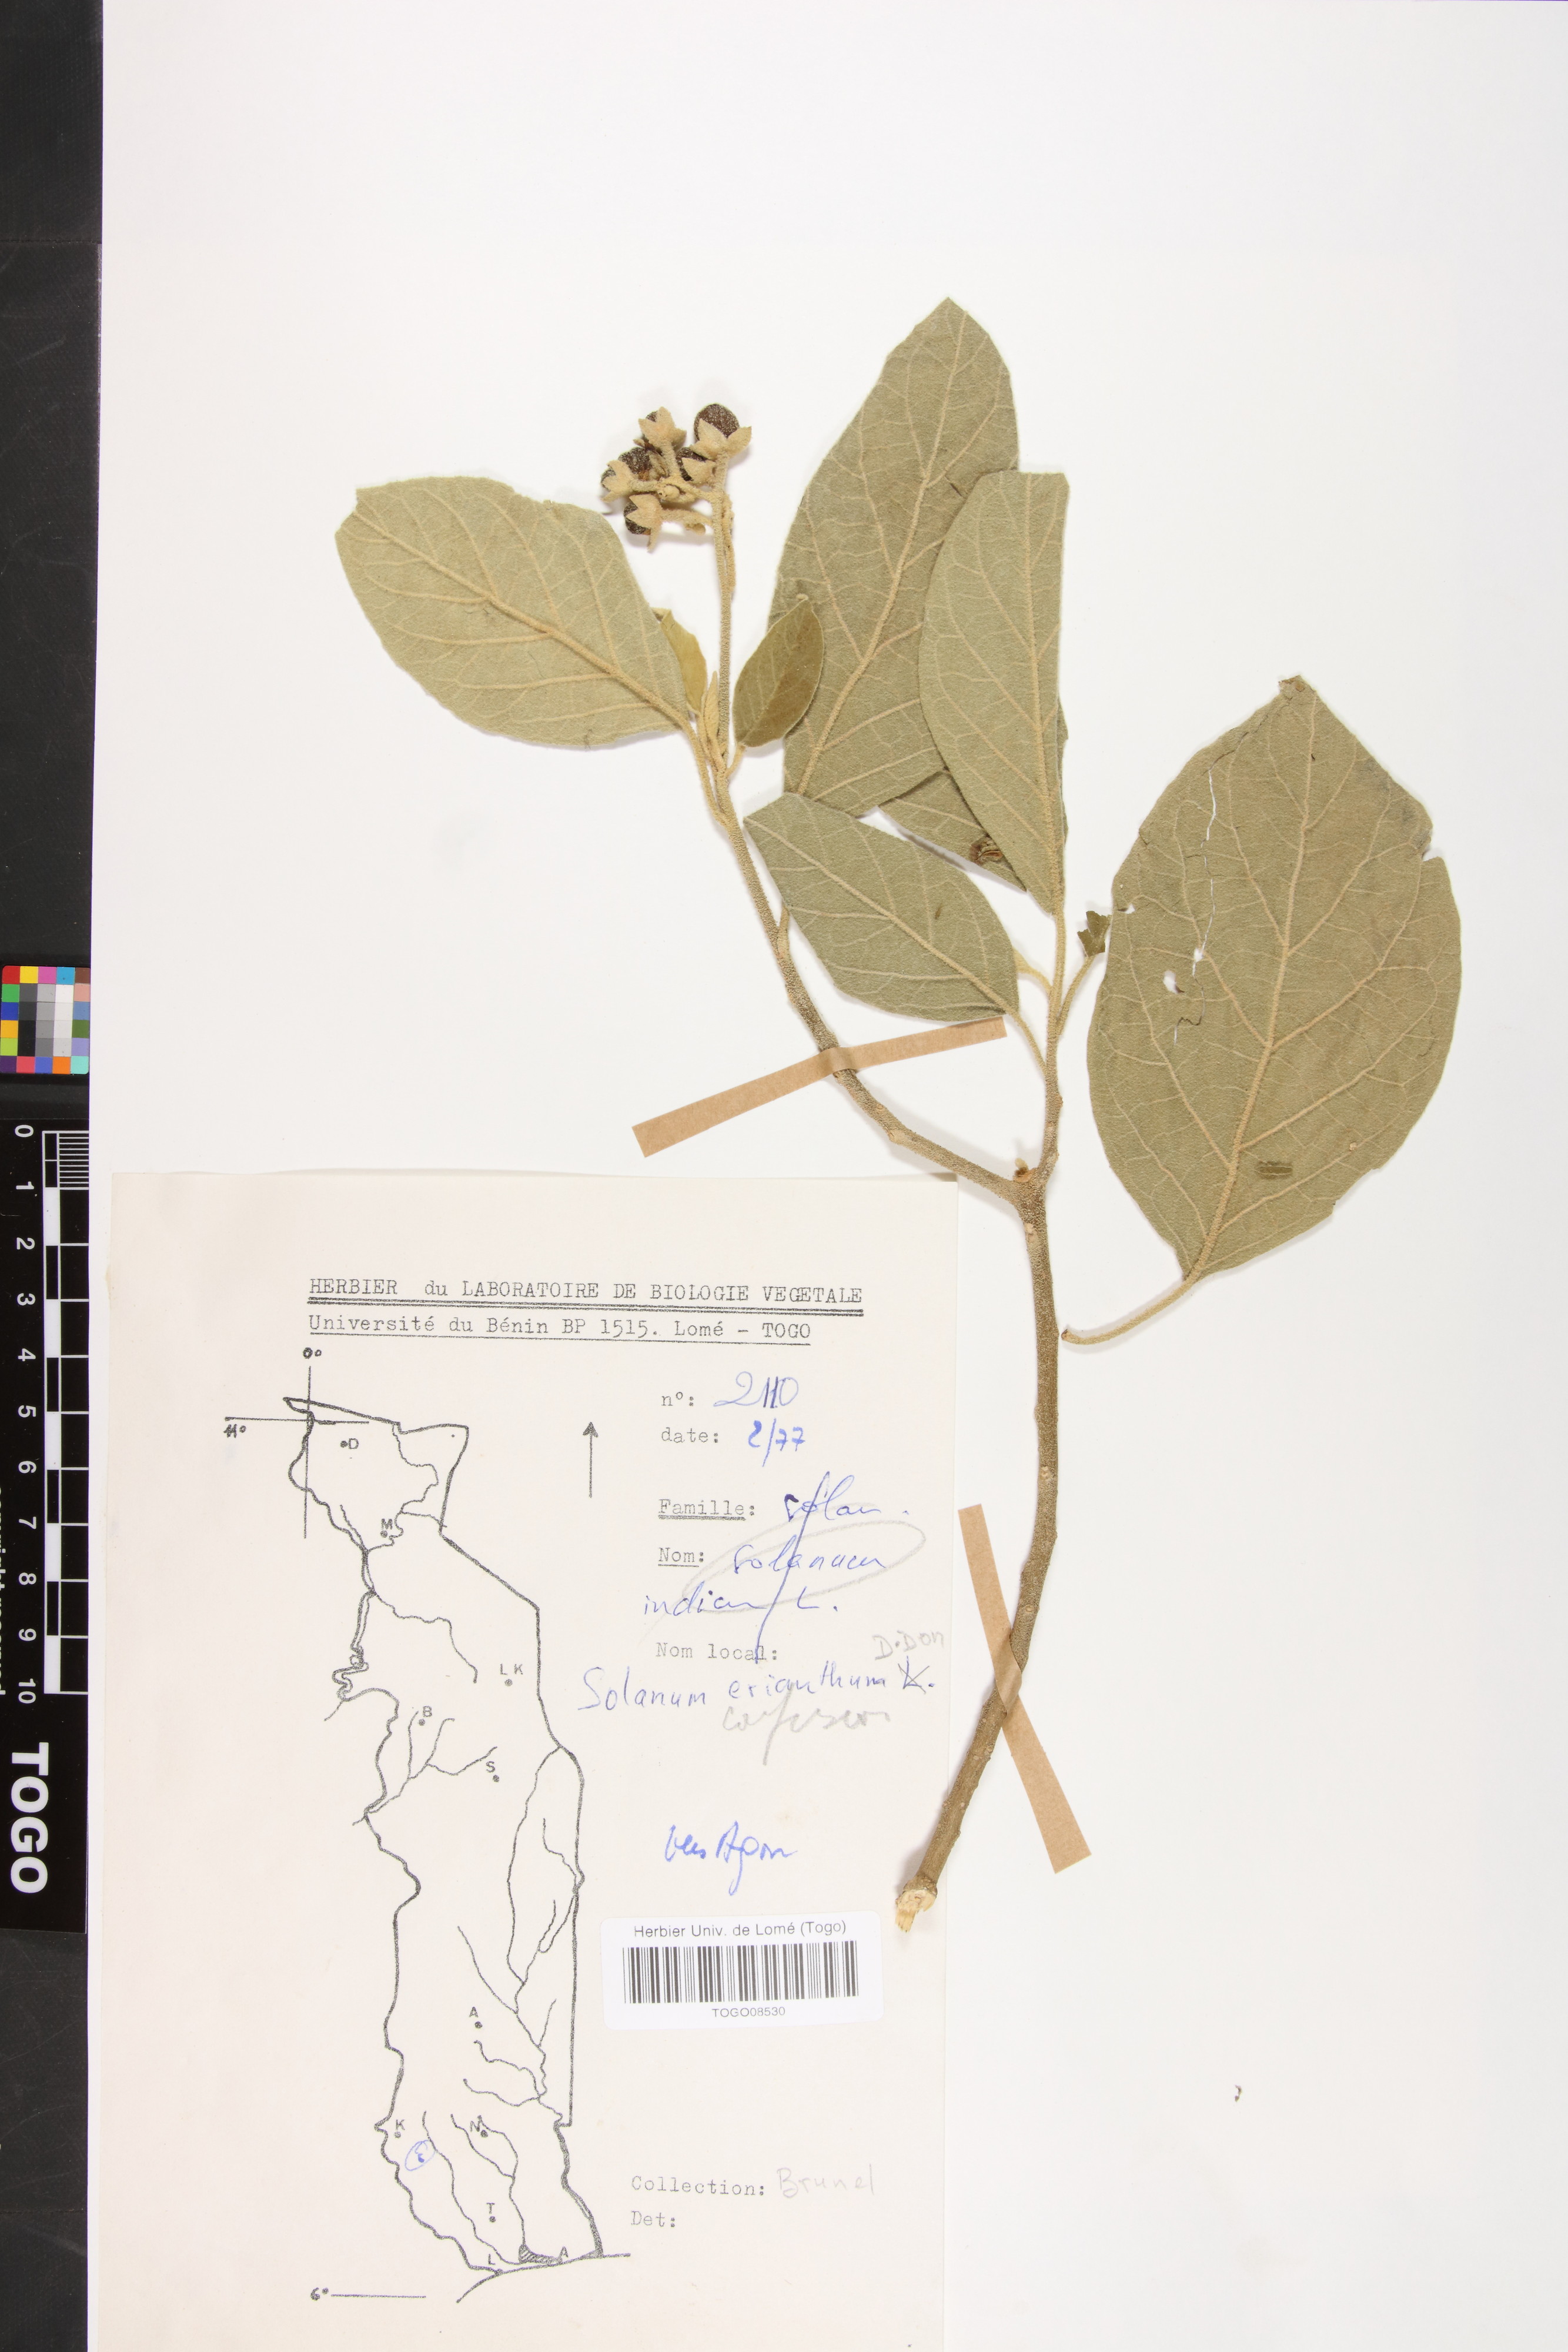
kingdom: Plantae
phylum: Tracheophyta
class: Magnoliopsida
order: Solanales
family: Solanaceae
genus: Solanum
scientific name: Solanum erianthum
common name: Tobacco-tree
